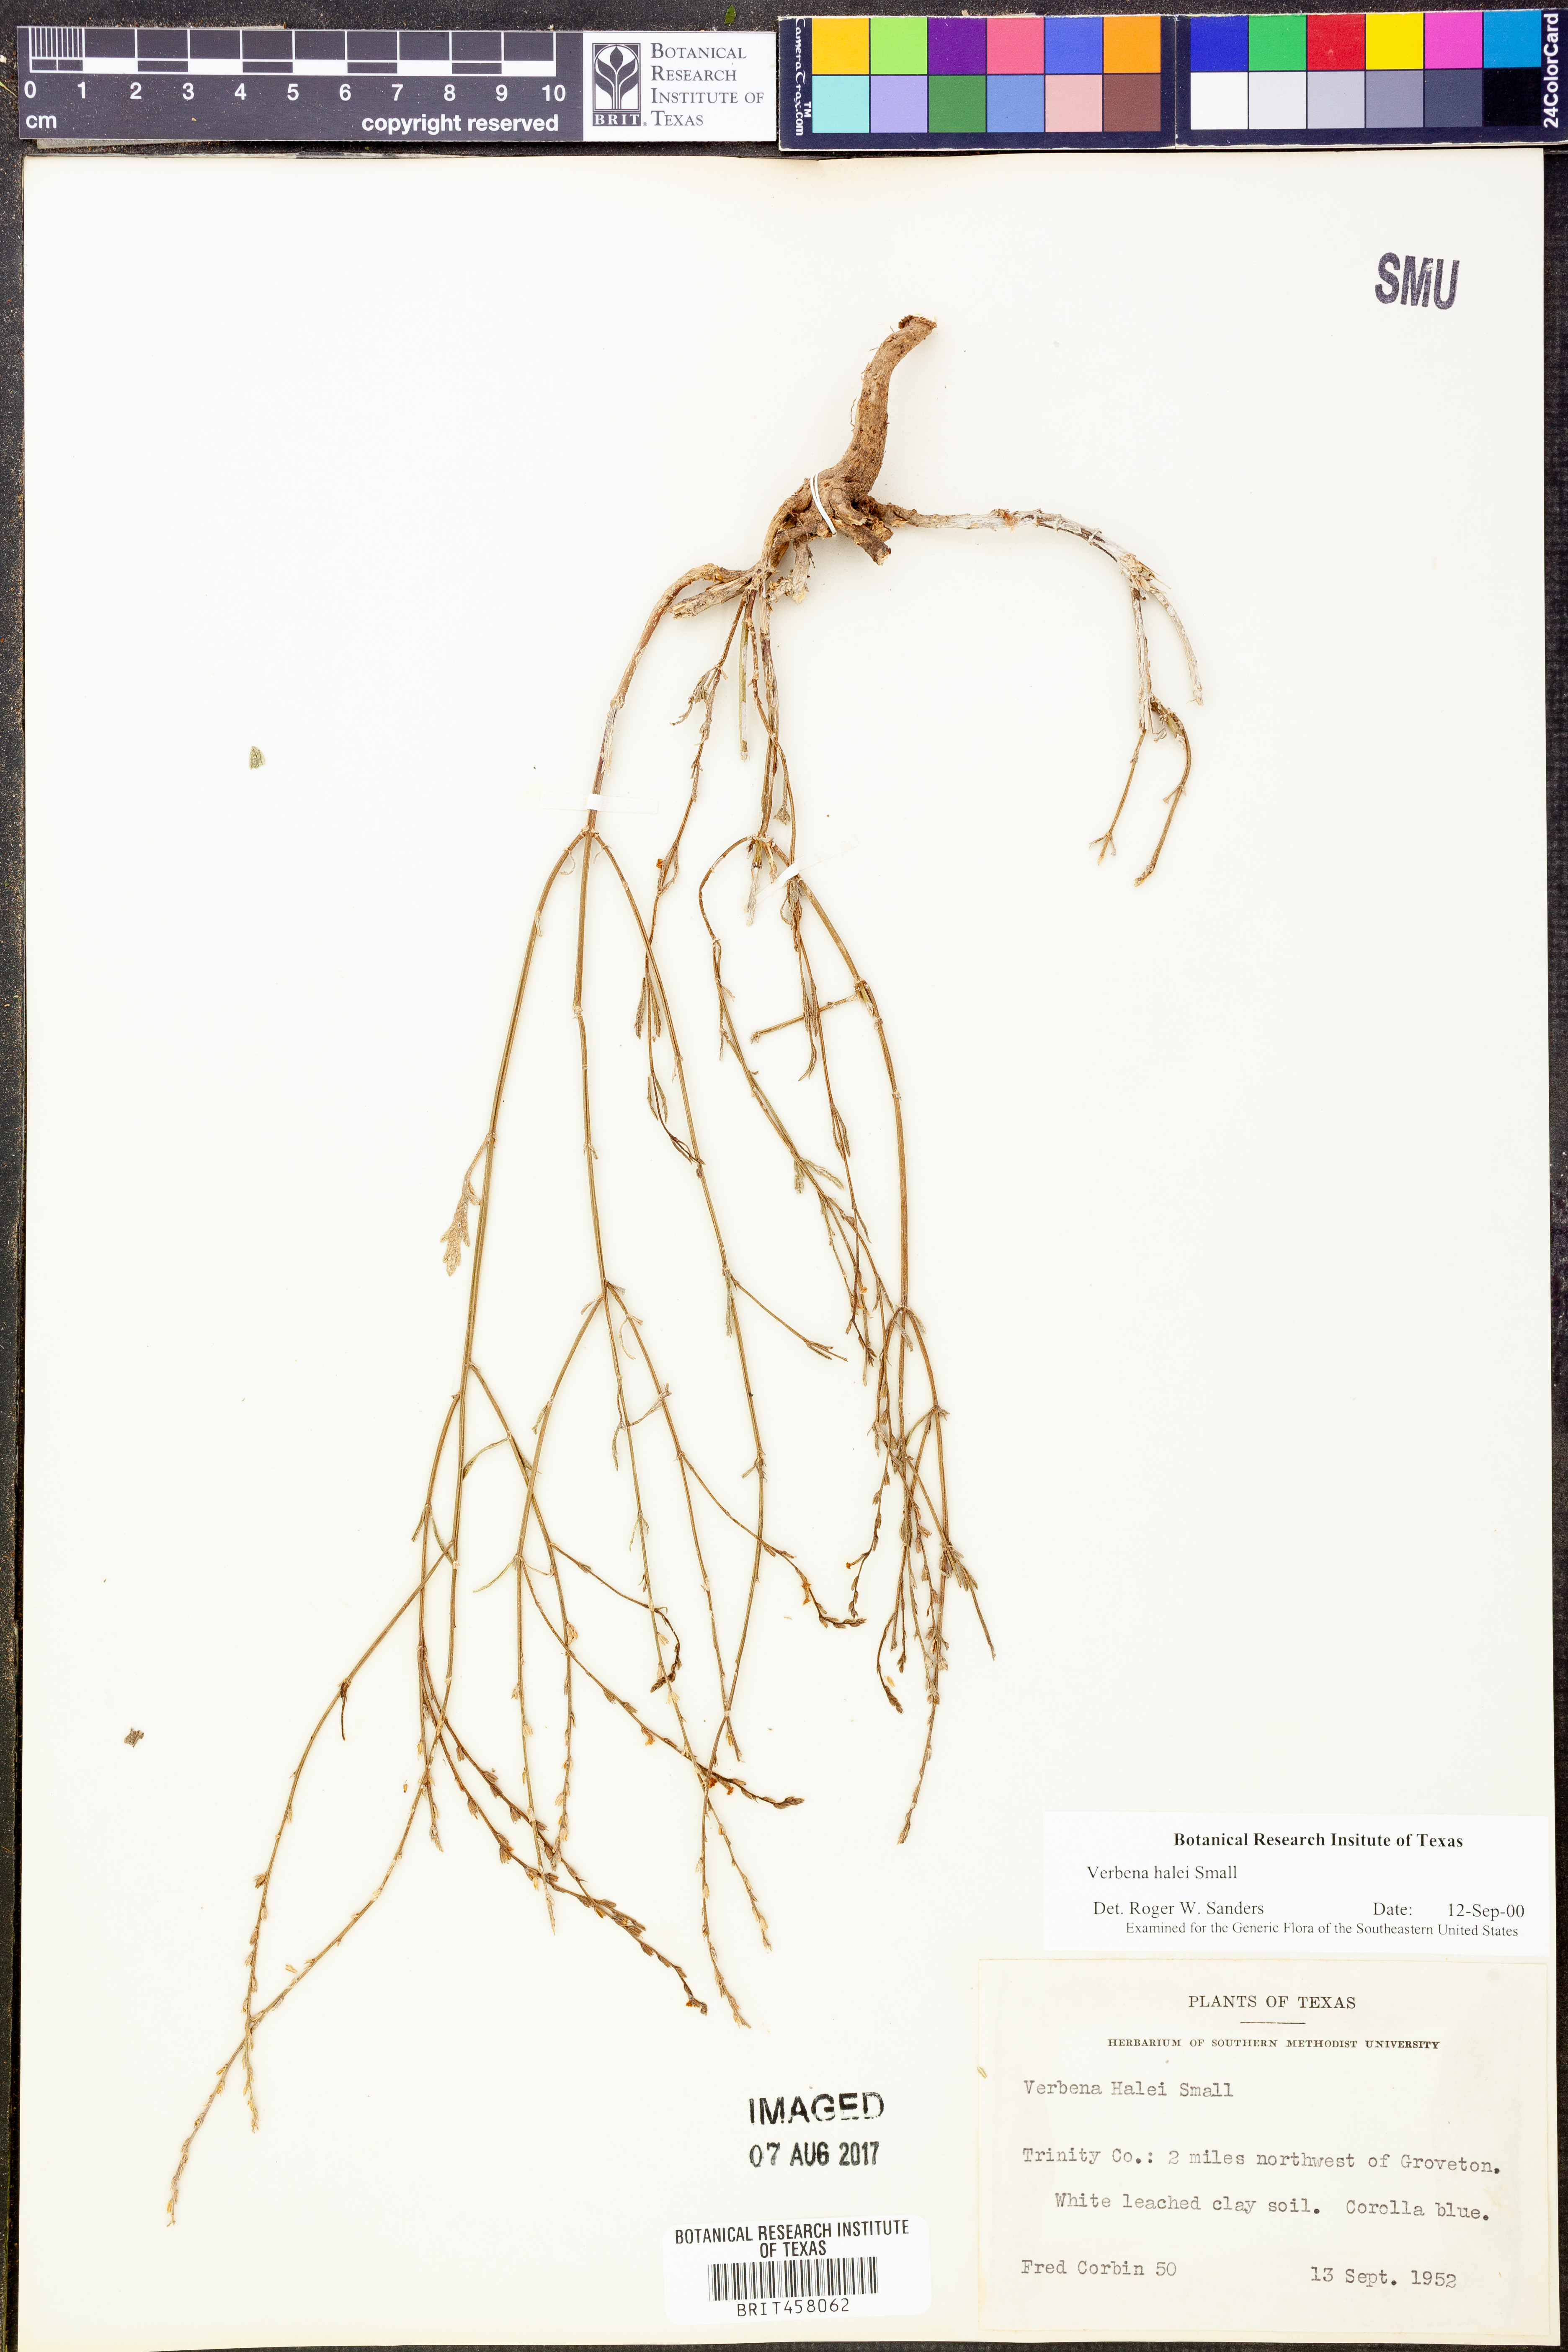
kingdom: Plantae
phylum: Tracheophyta
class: Magnoliopsida
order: Lamiales
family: Verbenaceae
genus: Verbena
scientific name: Verbena halei
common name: Texas vervain
